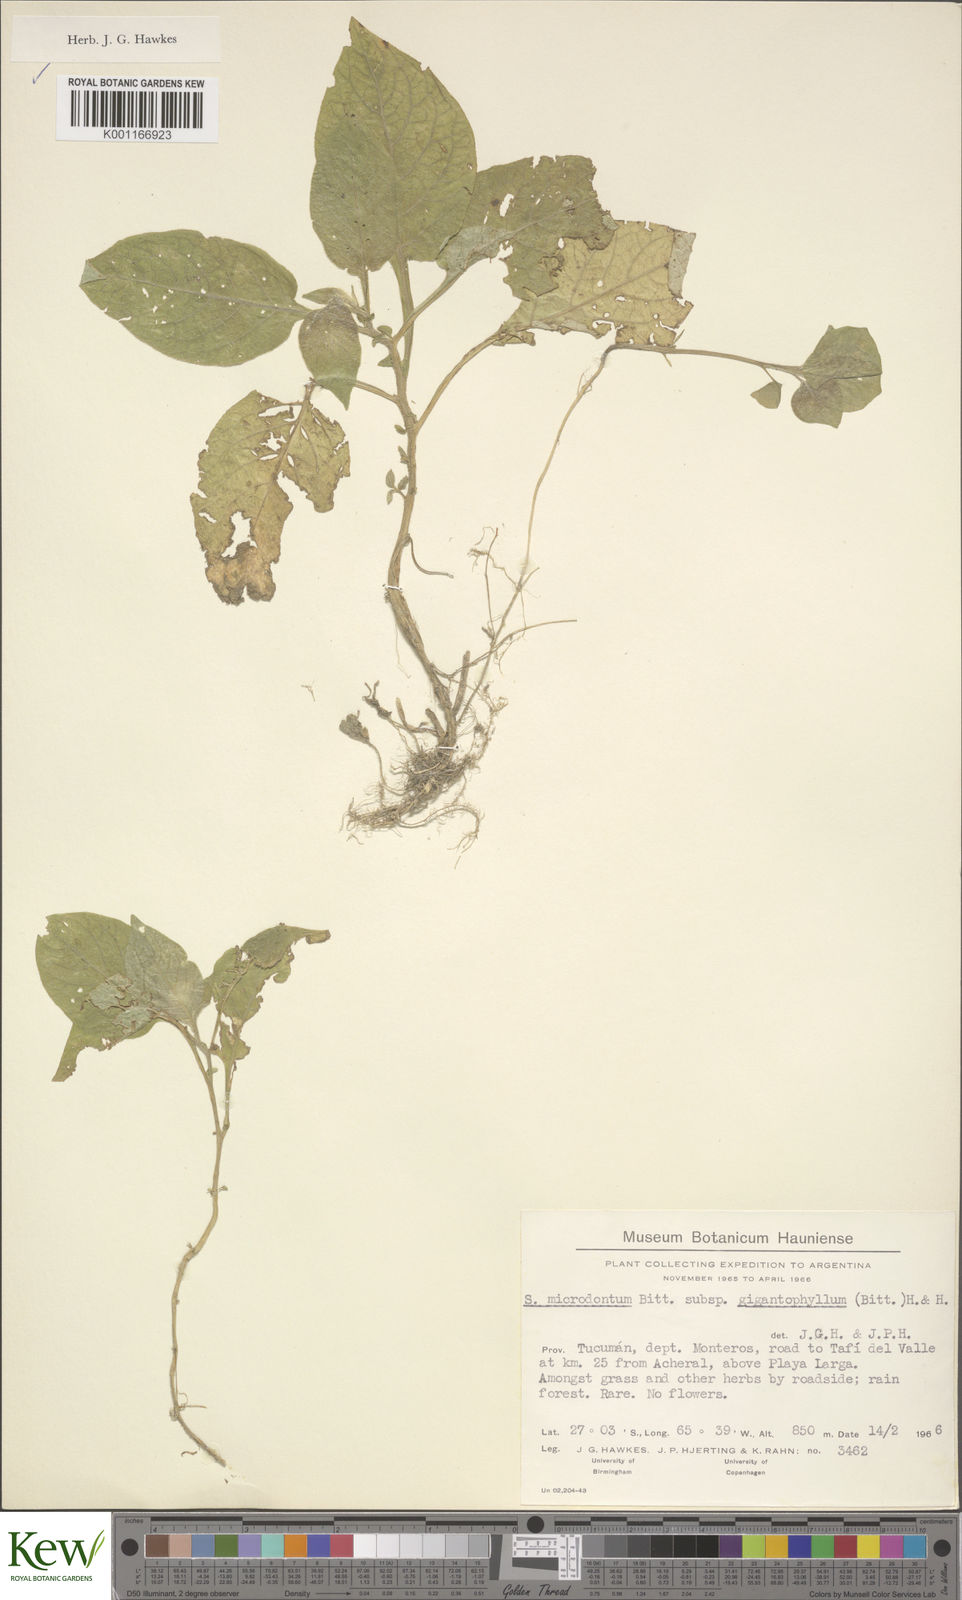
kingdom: Plantae
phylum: Tracheophyta
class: Magnoliopsida
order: Solanales
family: Solanaceae
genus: Solanum
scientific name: Solanum microdontum
